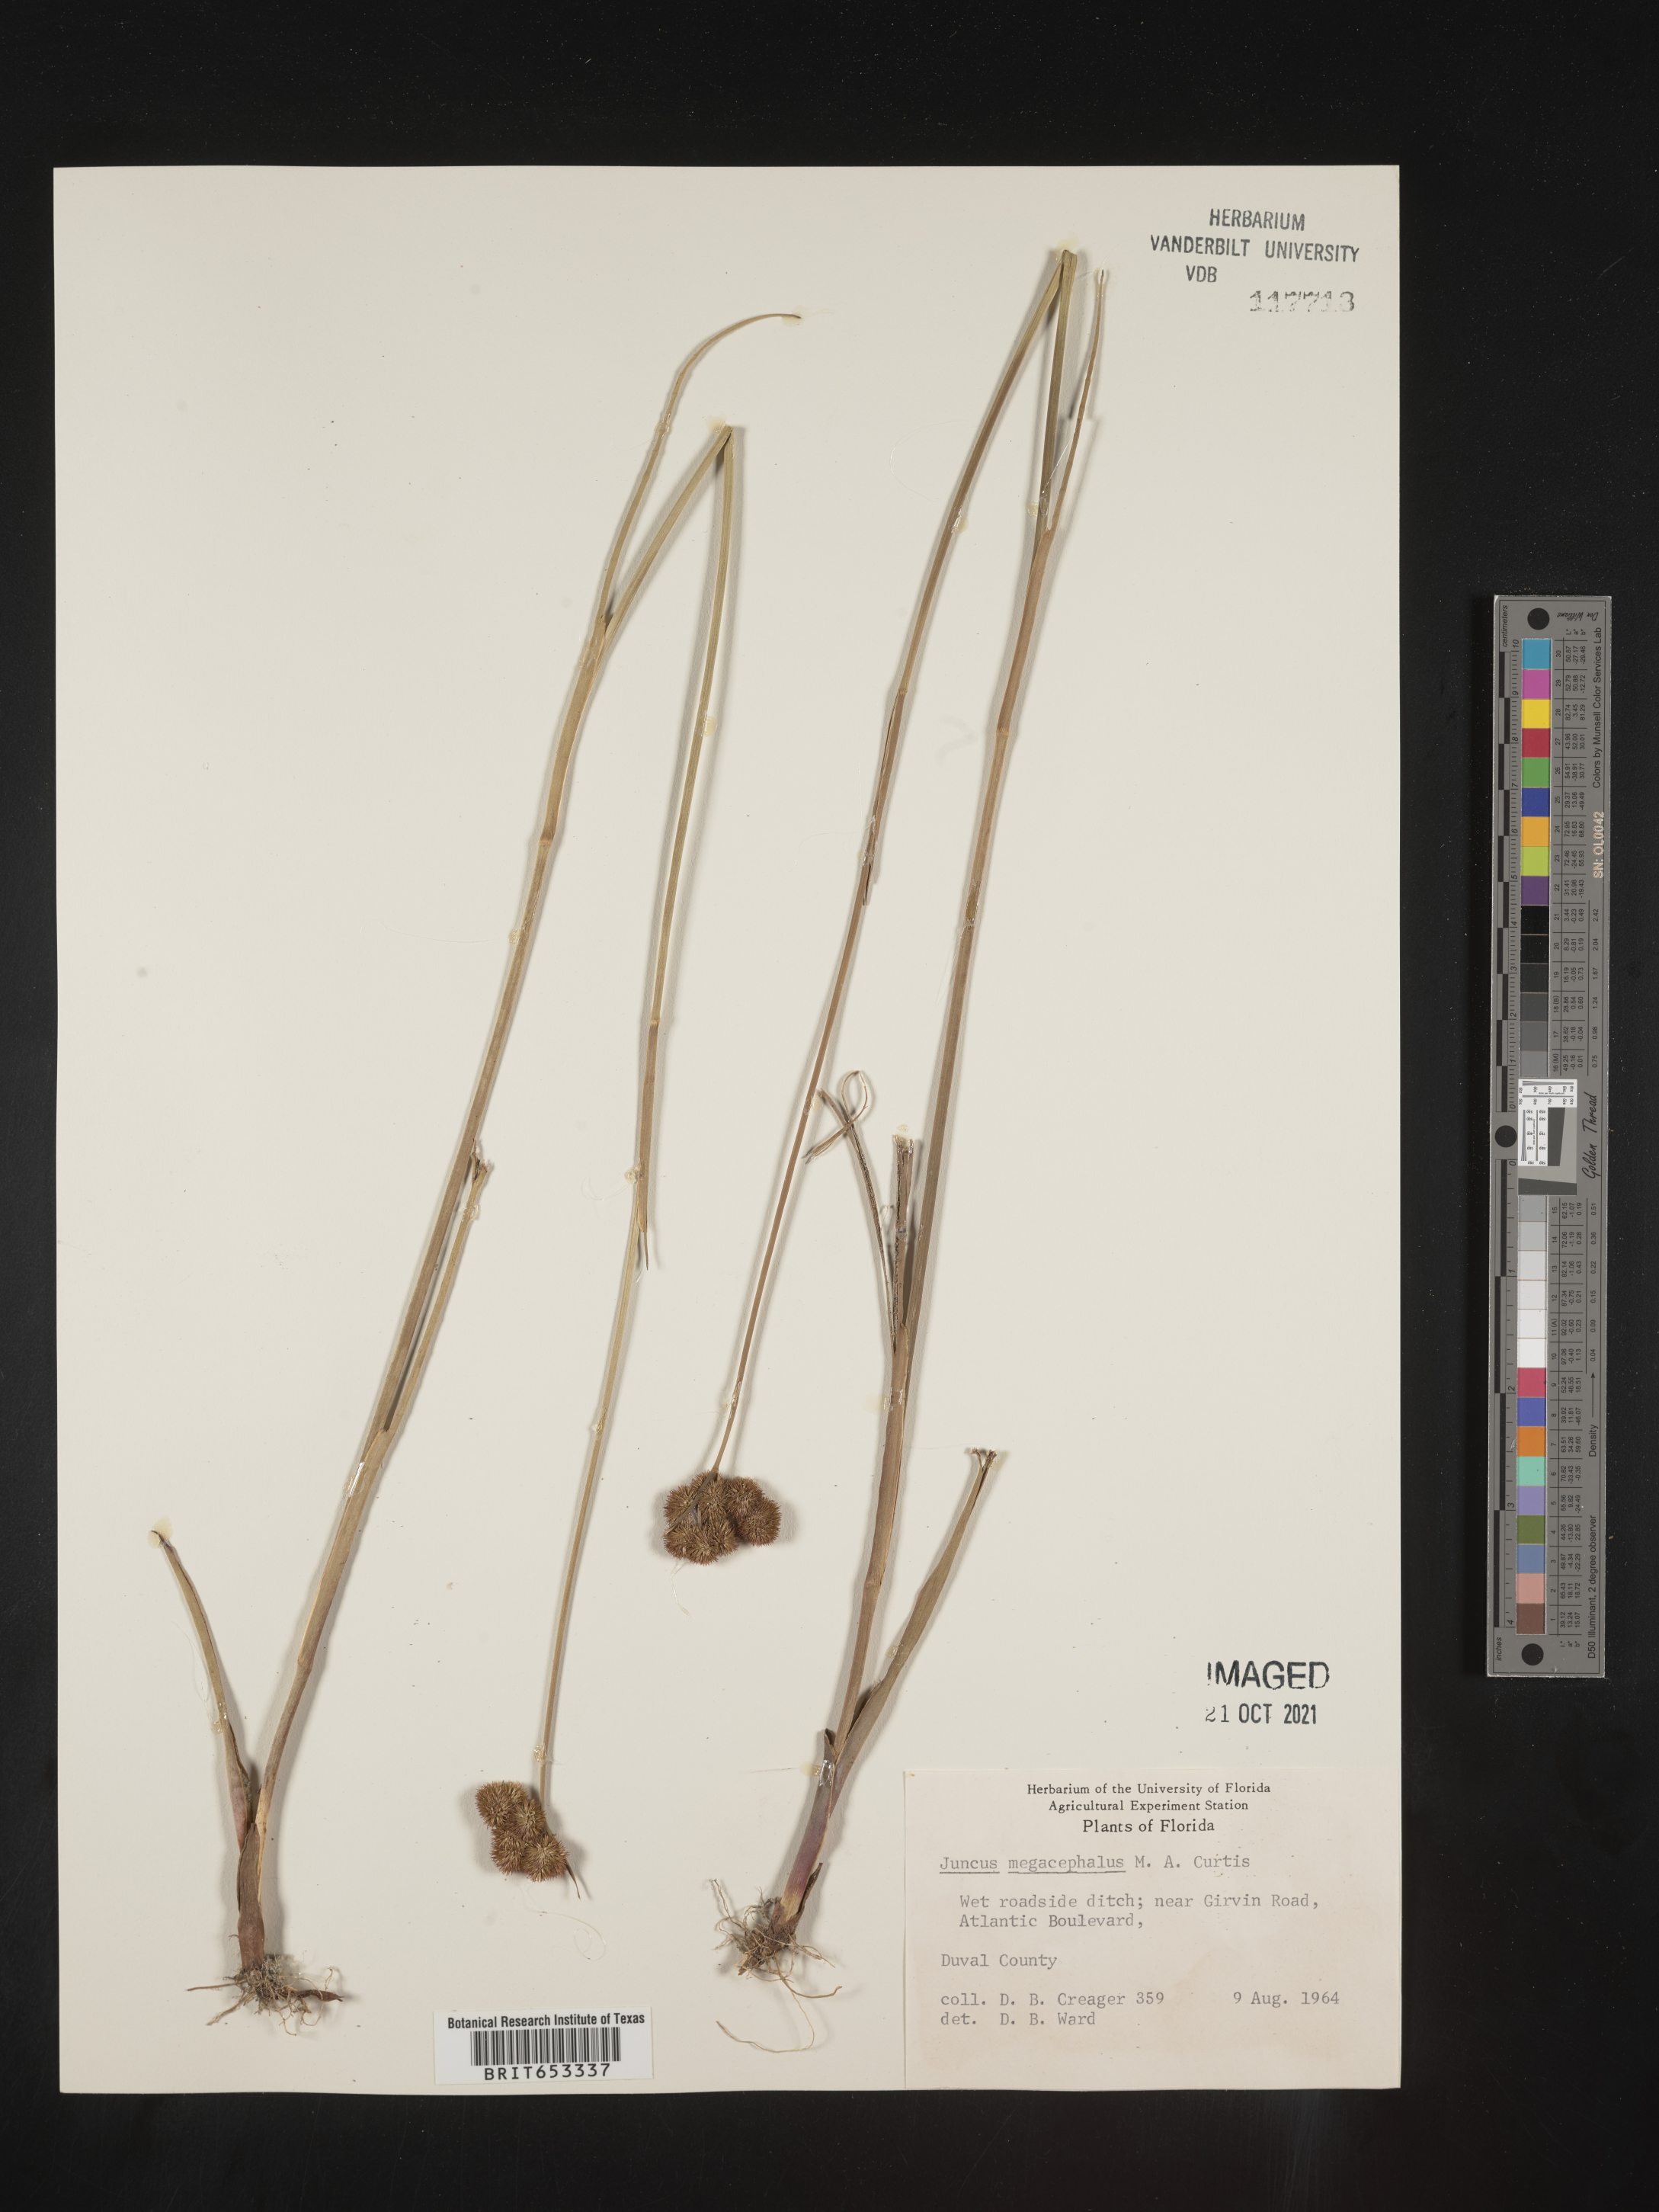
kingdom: Plantae
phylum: Tracheophyta
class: Liliopsida
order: Poales
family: Juncaceae
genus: Juncus
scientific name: Juncus megacephalus
